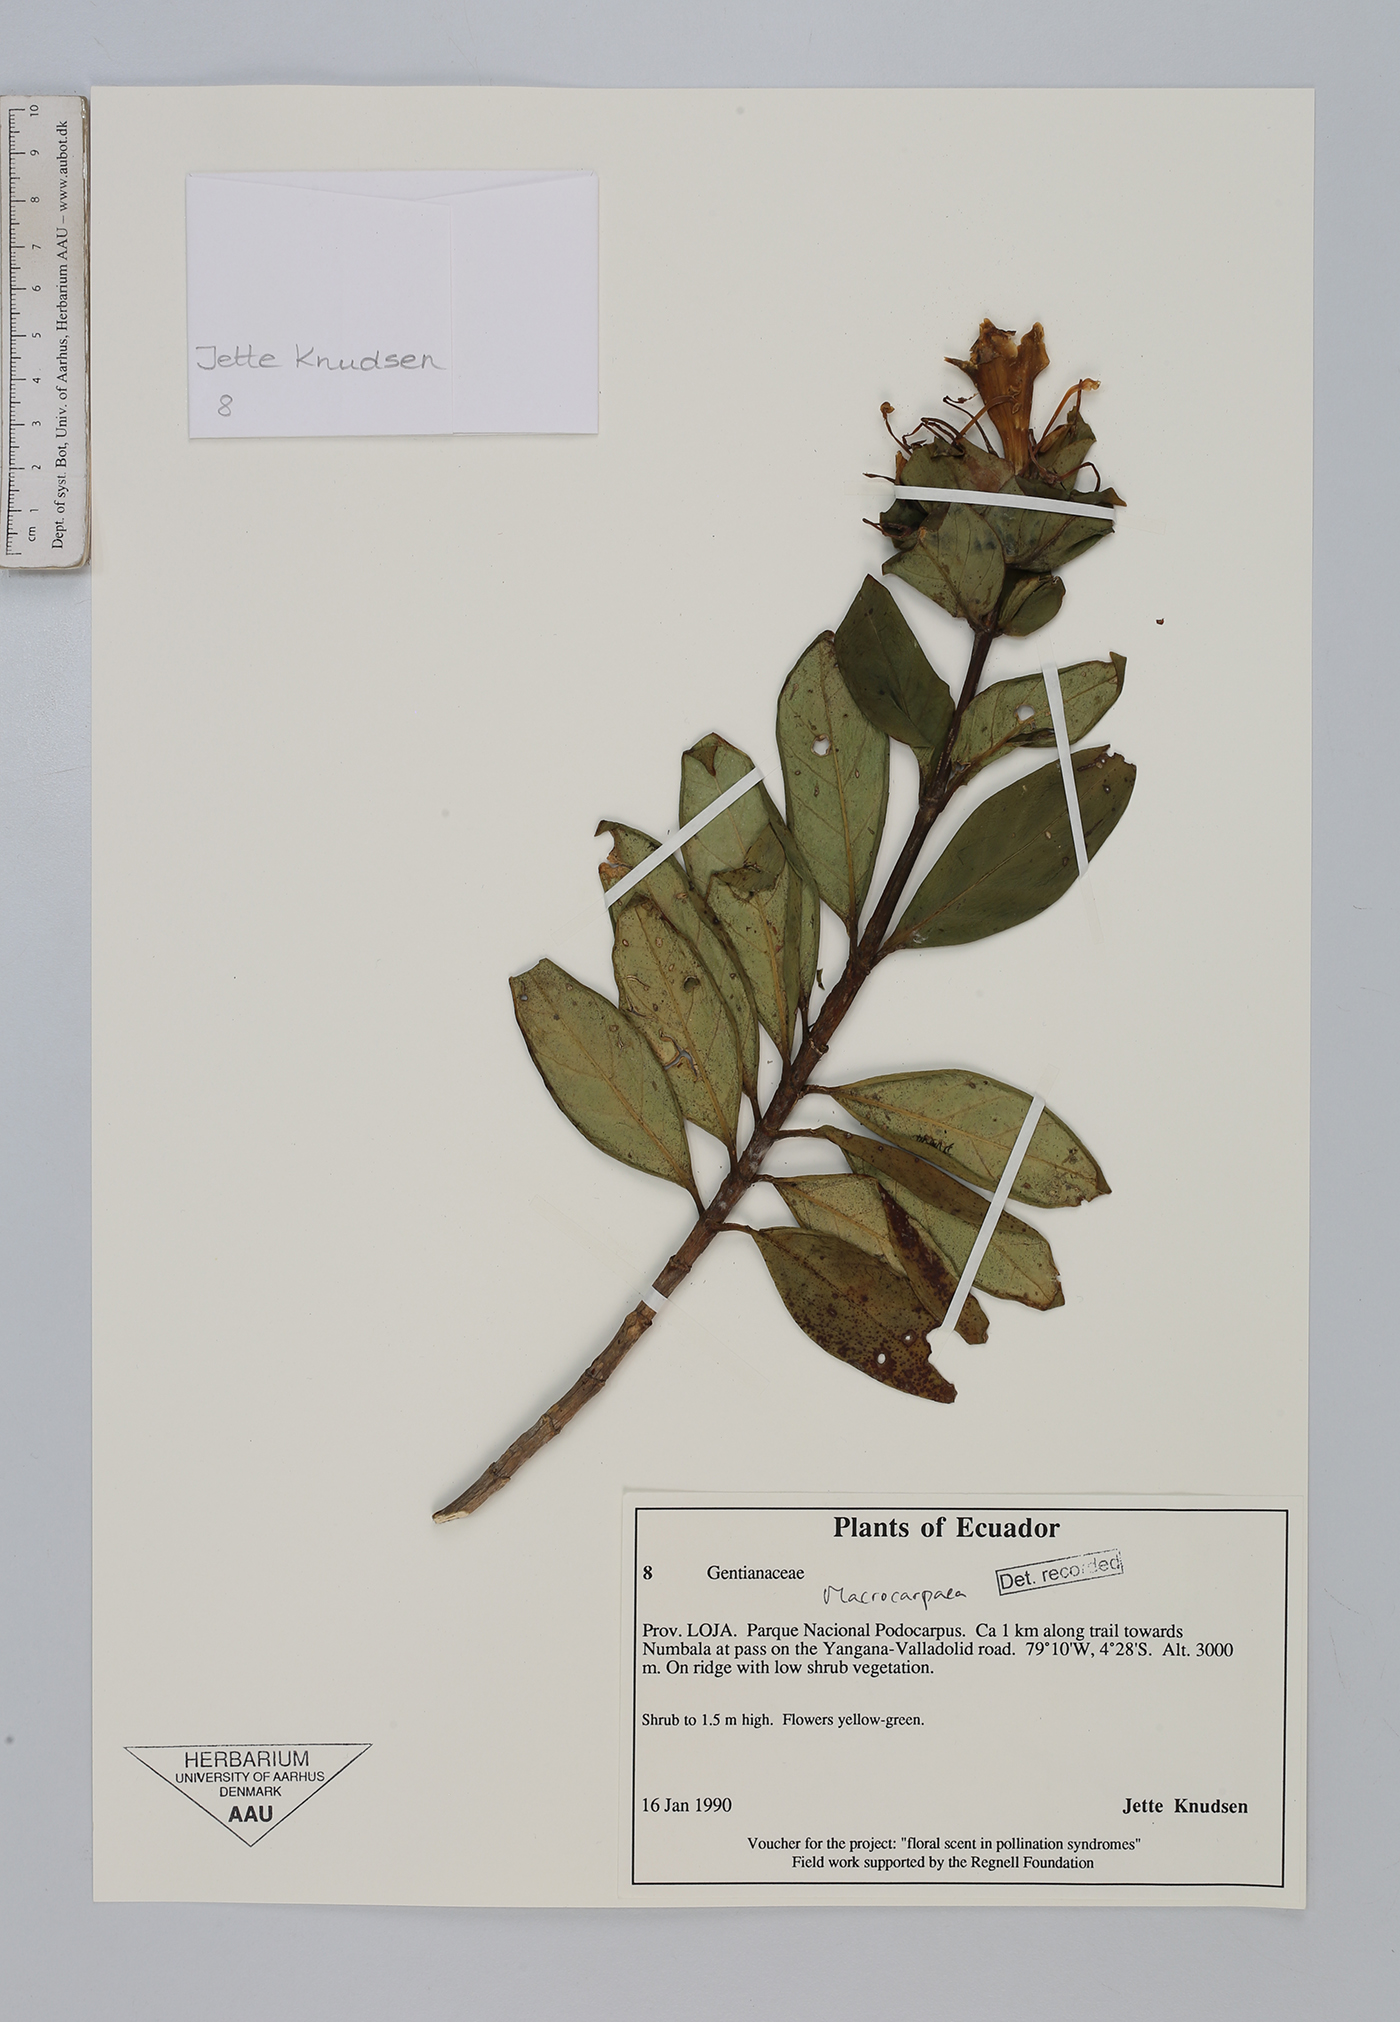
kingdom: Plantae
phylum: Tracheophyta
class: Magnoliopsida
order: Gentianales
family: Gentianaceae
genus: Macrocarpaea
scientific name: Macrocarpaea
